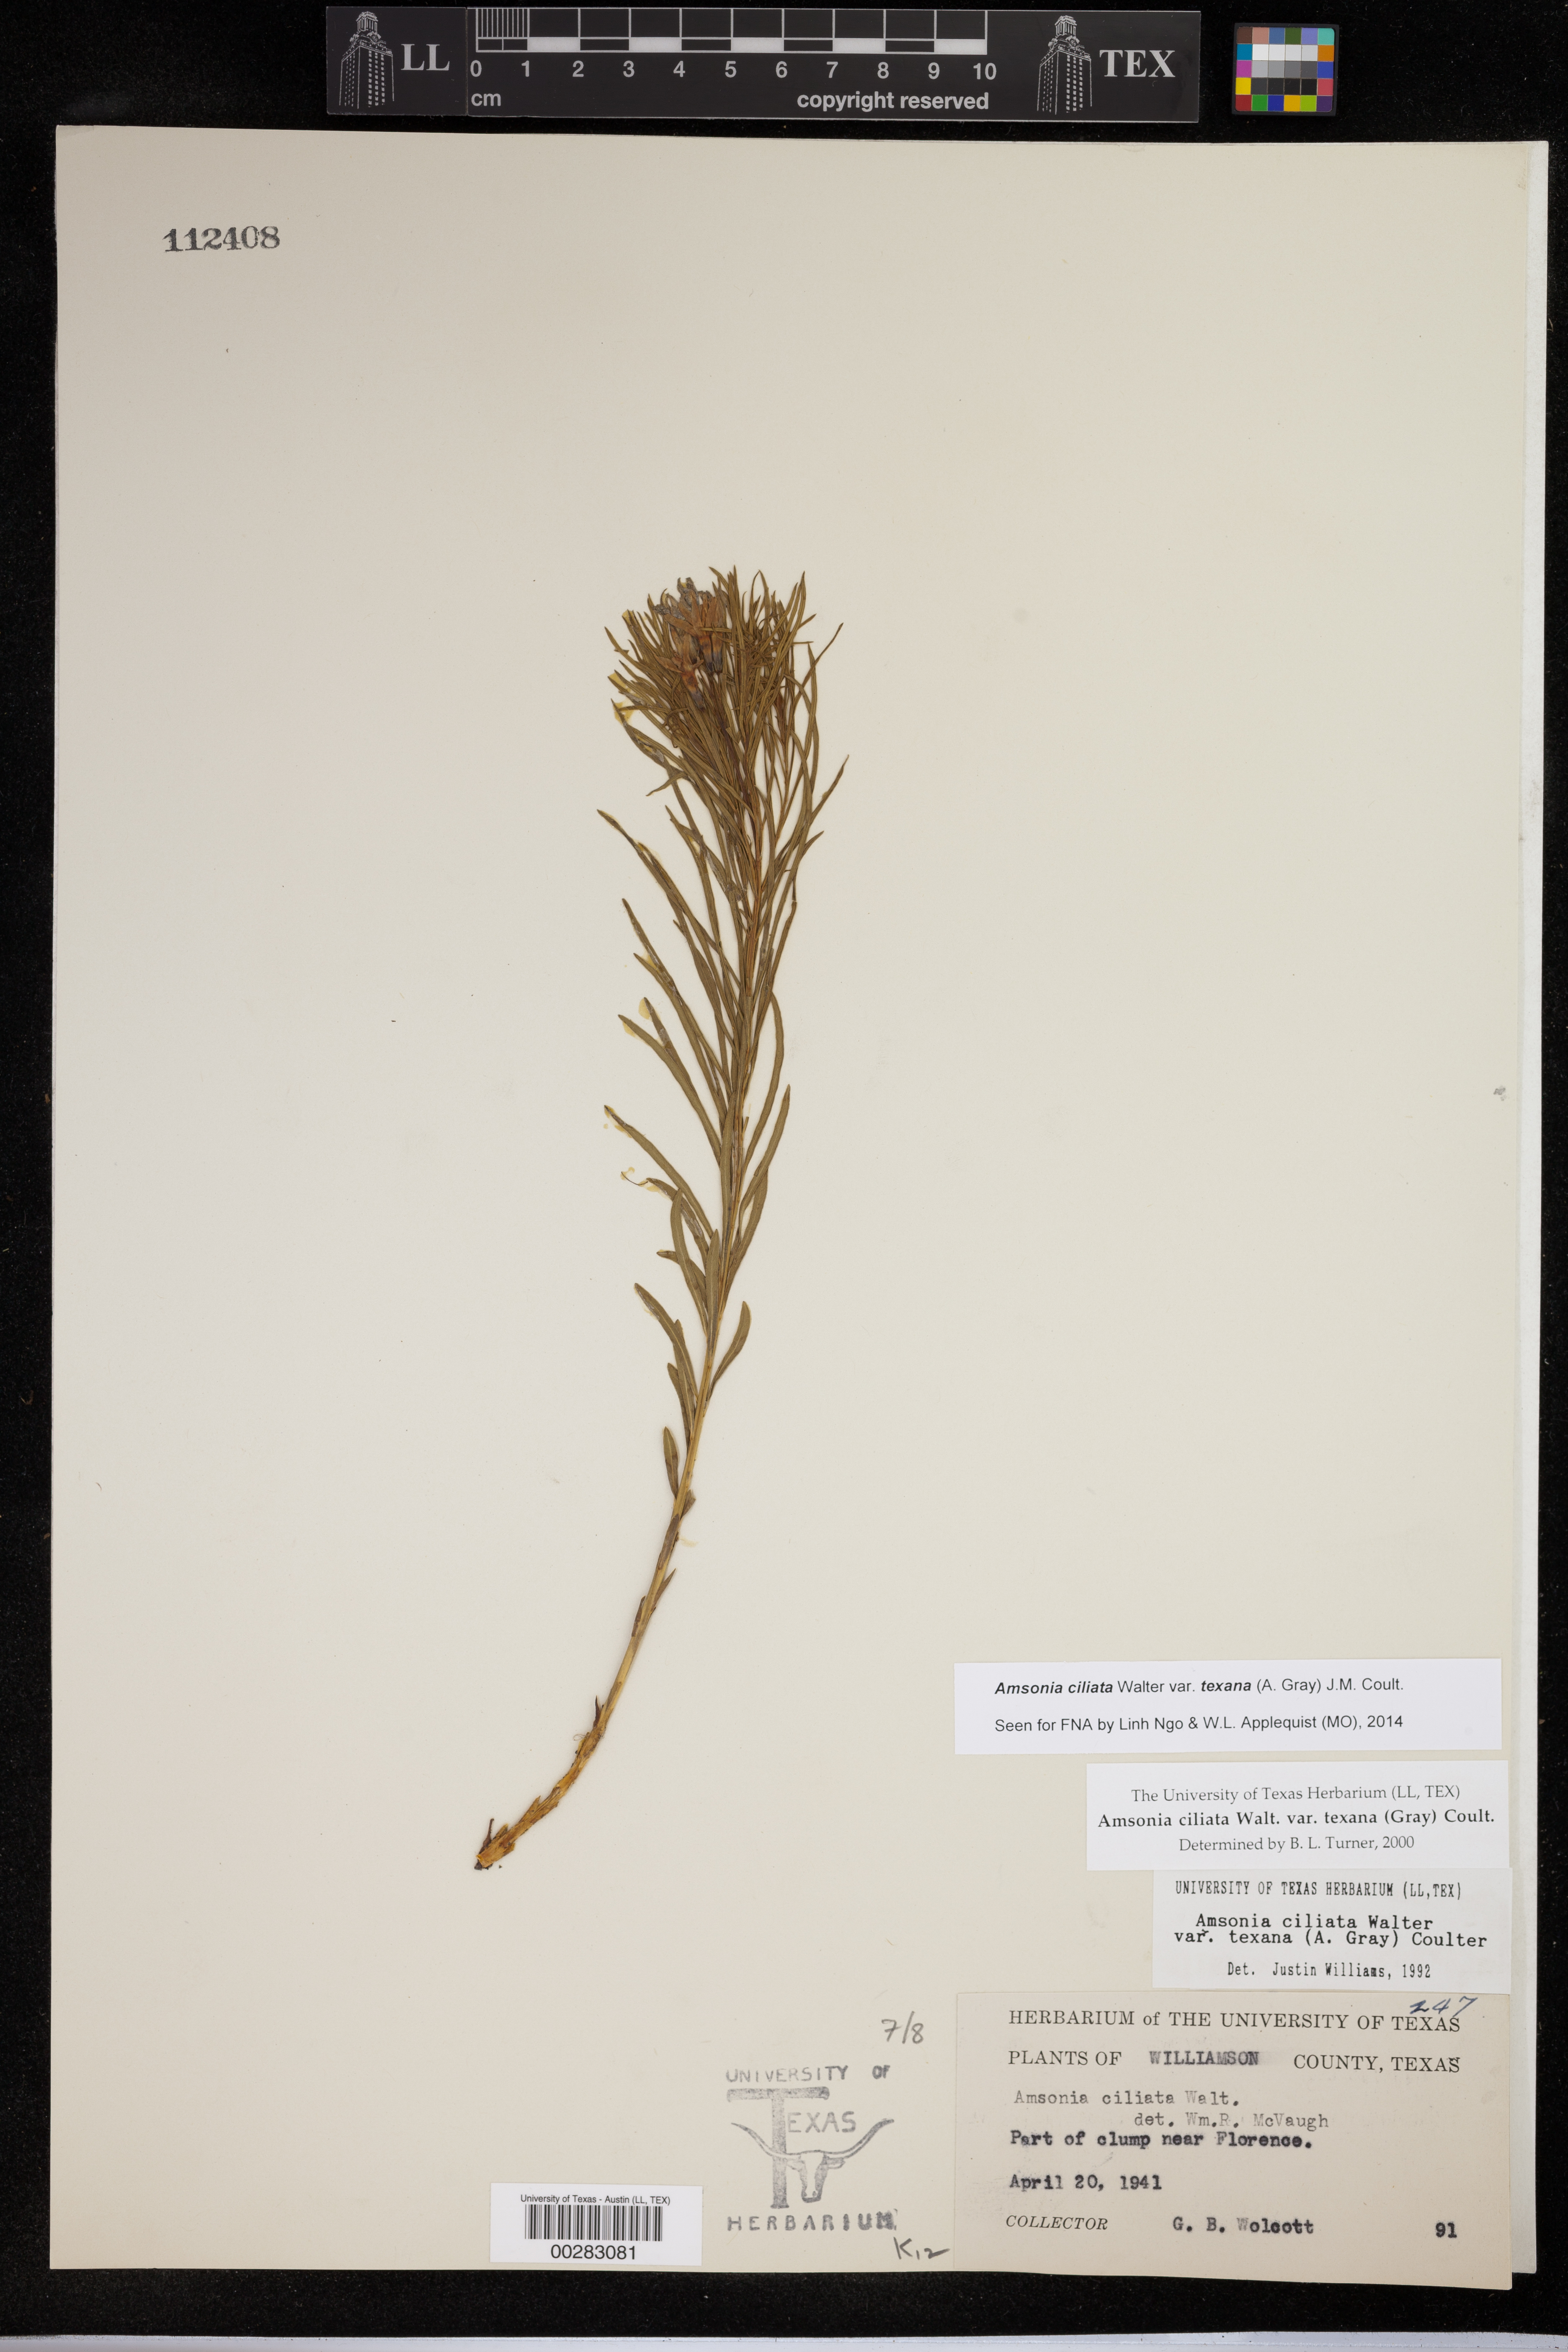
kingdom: Plantae
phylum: Tracheophyta
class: Magnoliopsida
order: Gentianales
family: Apocynaceae
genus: Amsonia
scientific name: Amsonia ciliata
